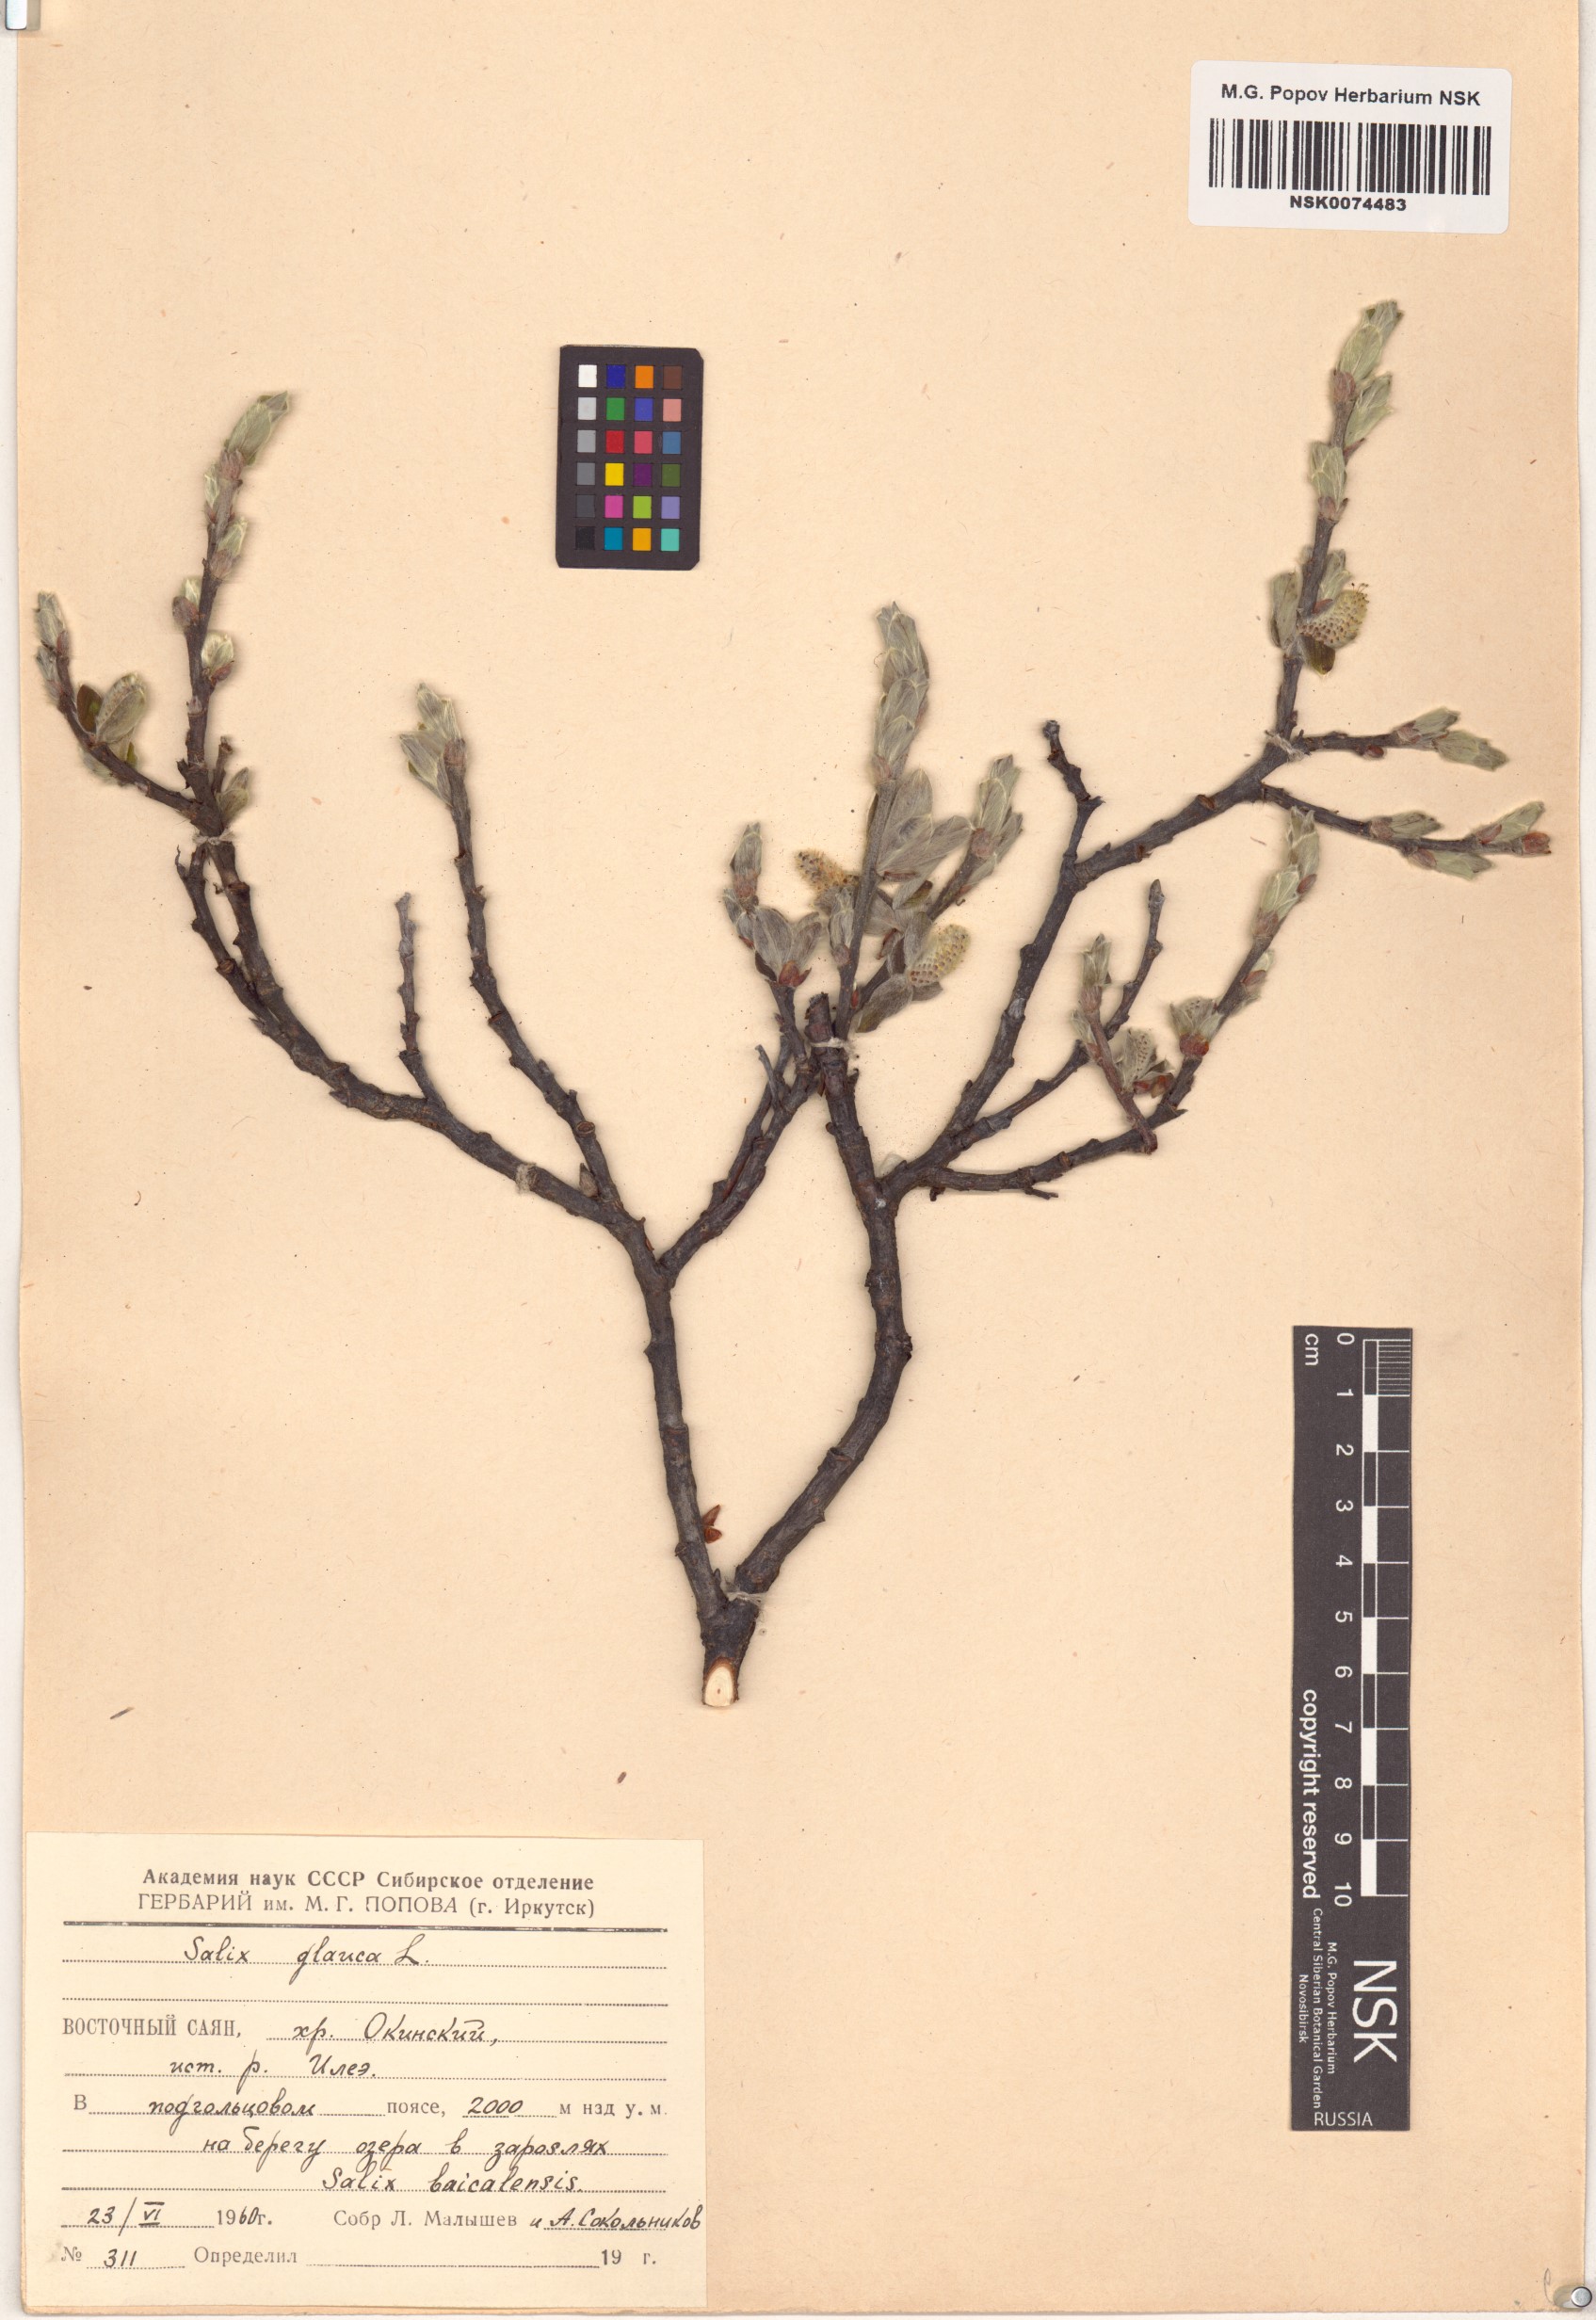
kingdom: Plantae
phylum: Tracheophyta
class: Magnoliopsida
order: Malpighiales
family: Salicaceae
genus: Salix
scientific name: Salix glauca
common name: Glaucous willow
